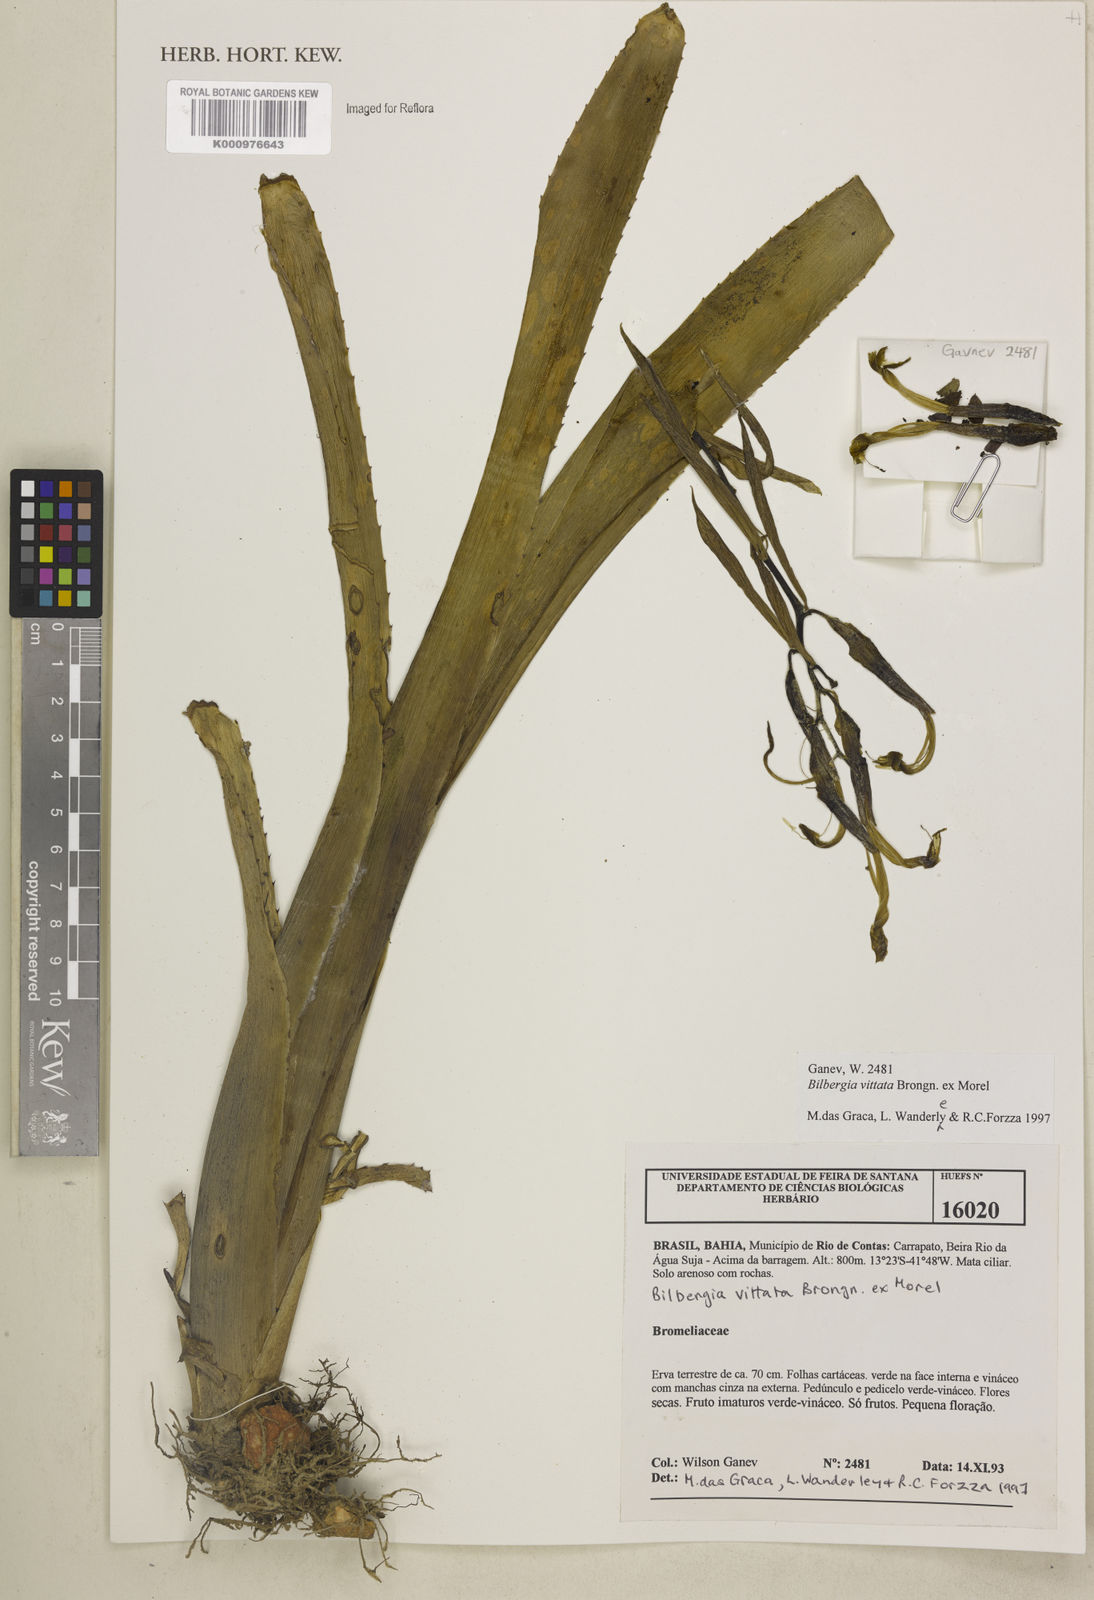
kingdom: Plantae
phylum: Tracheophyta
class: Liliopsida
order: Poales
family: Bromeliaceae
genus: Billbergia
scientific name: Billbergia vittata
